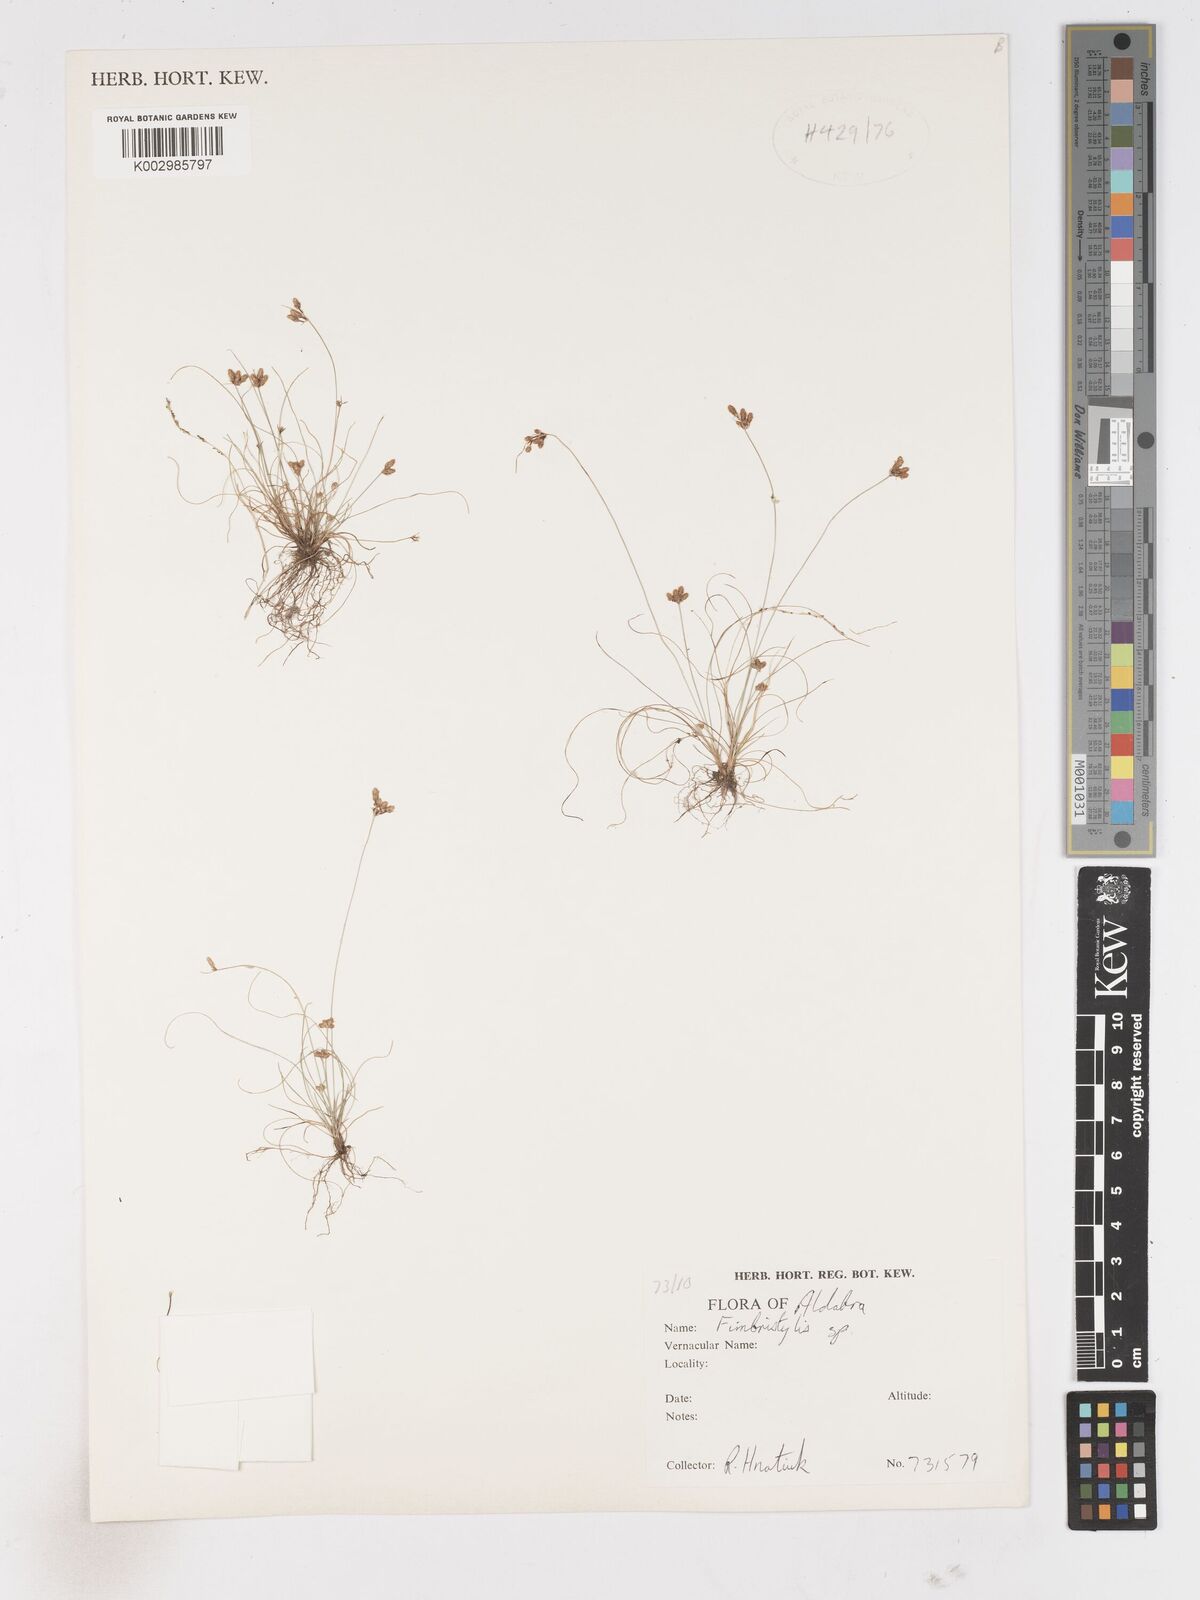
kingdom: Plantae
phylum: Tracheophyta
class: Liliopsida
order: Poales
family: Cyperaceae
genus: Fimbristylis
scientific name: Fimbristylis
